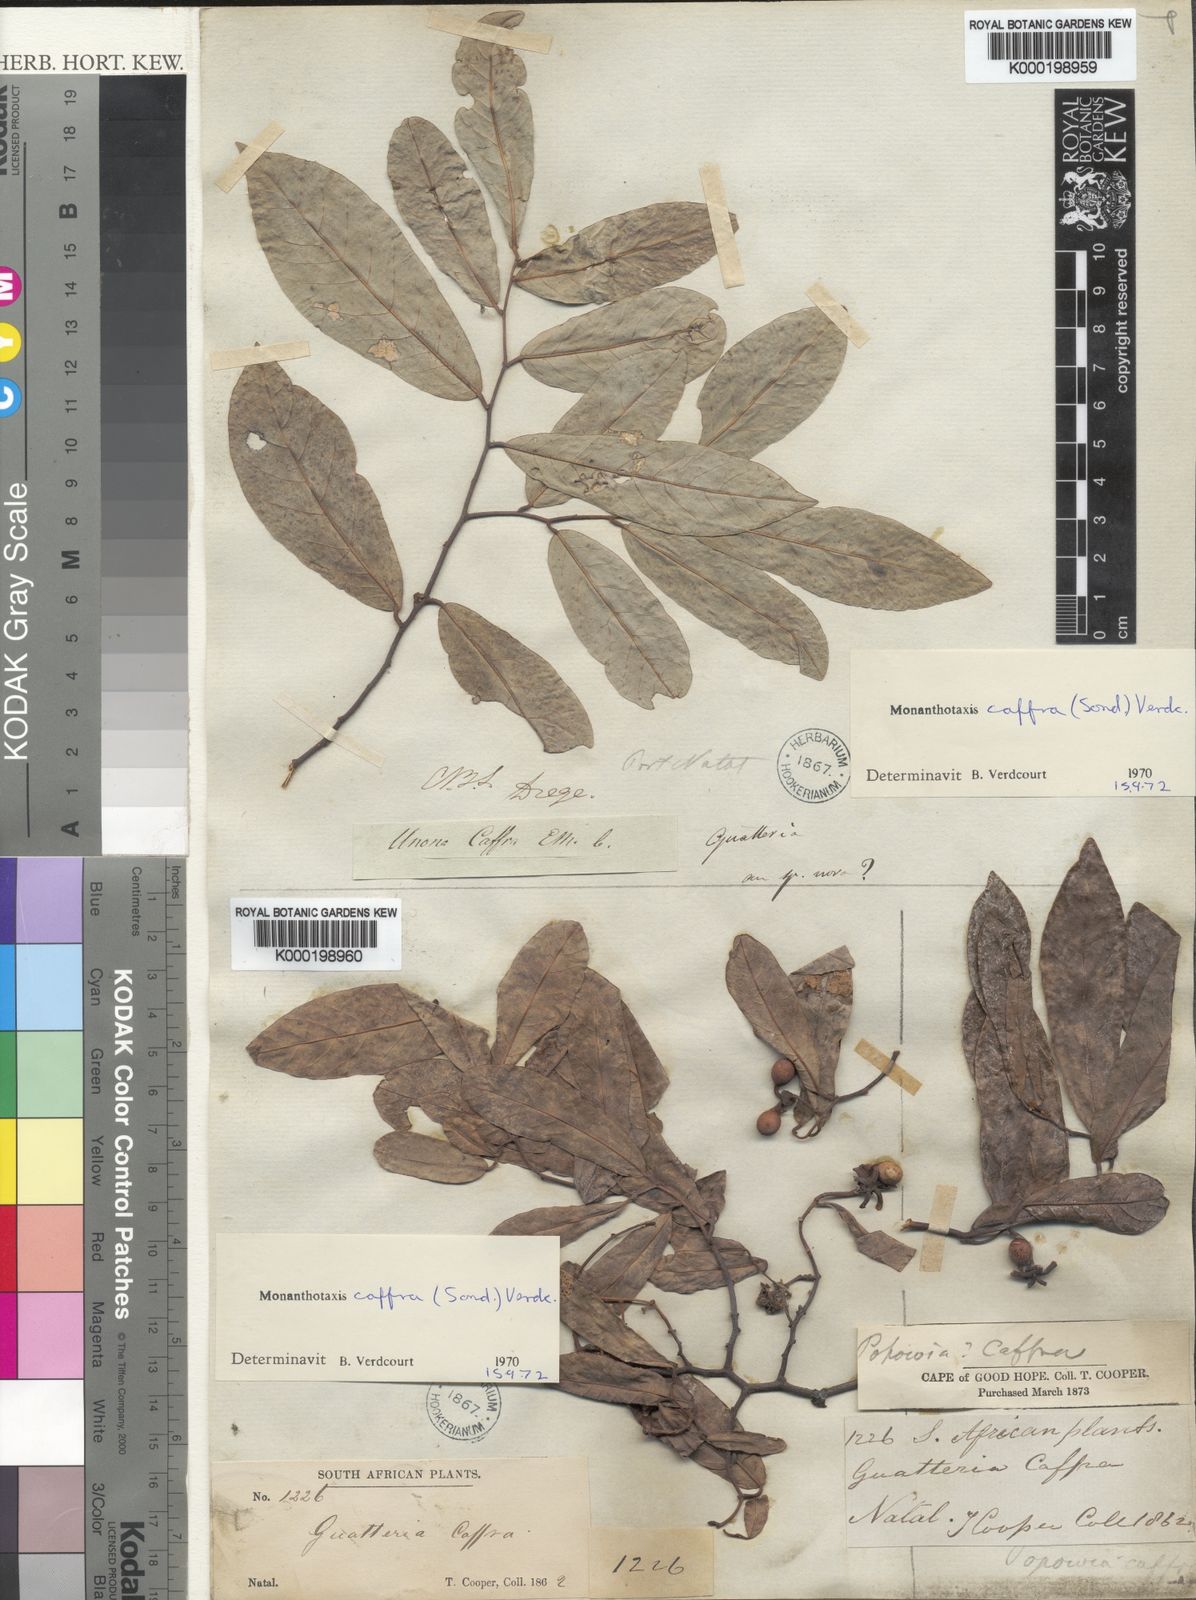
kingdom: Plantae
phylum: Tracheophyta
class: Magnoliopsida
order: Magnoliales
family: Annonaceae
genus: Monanthotaxis
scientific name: Monanthotaxis caffra
